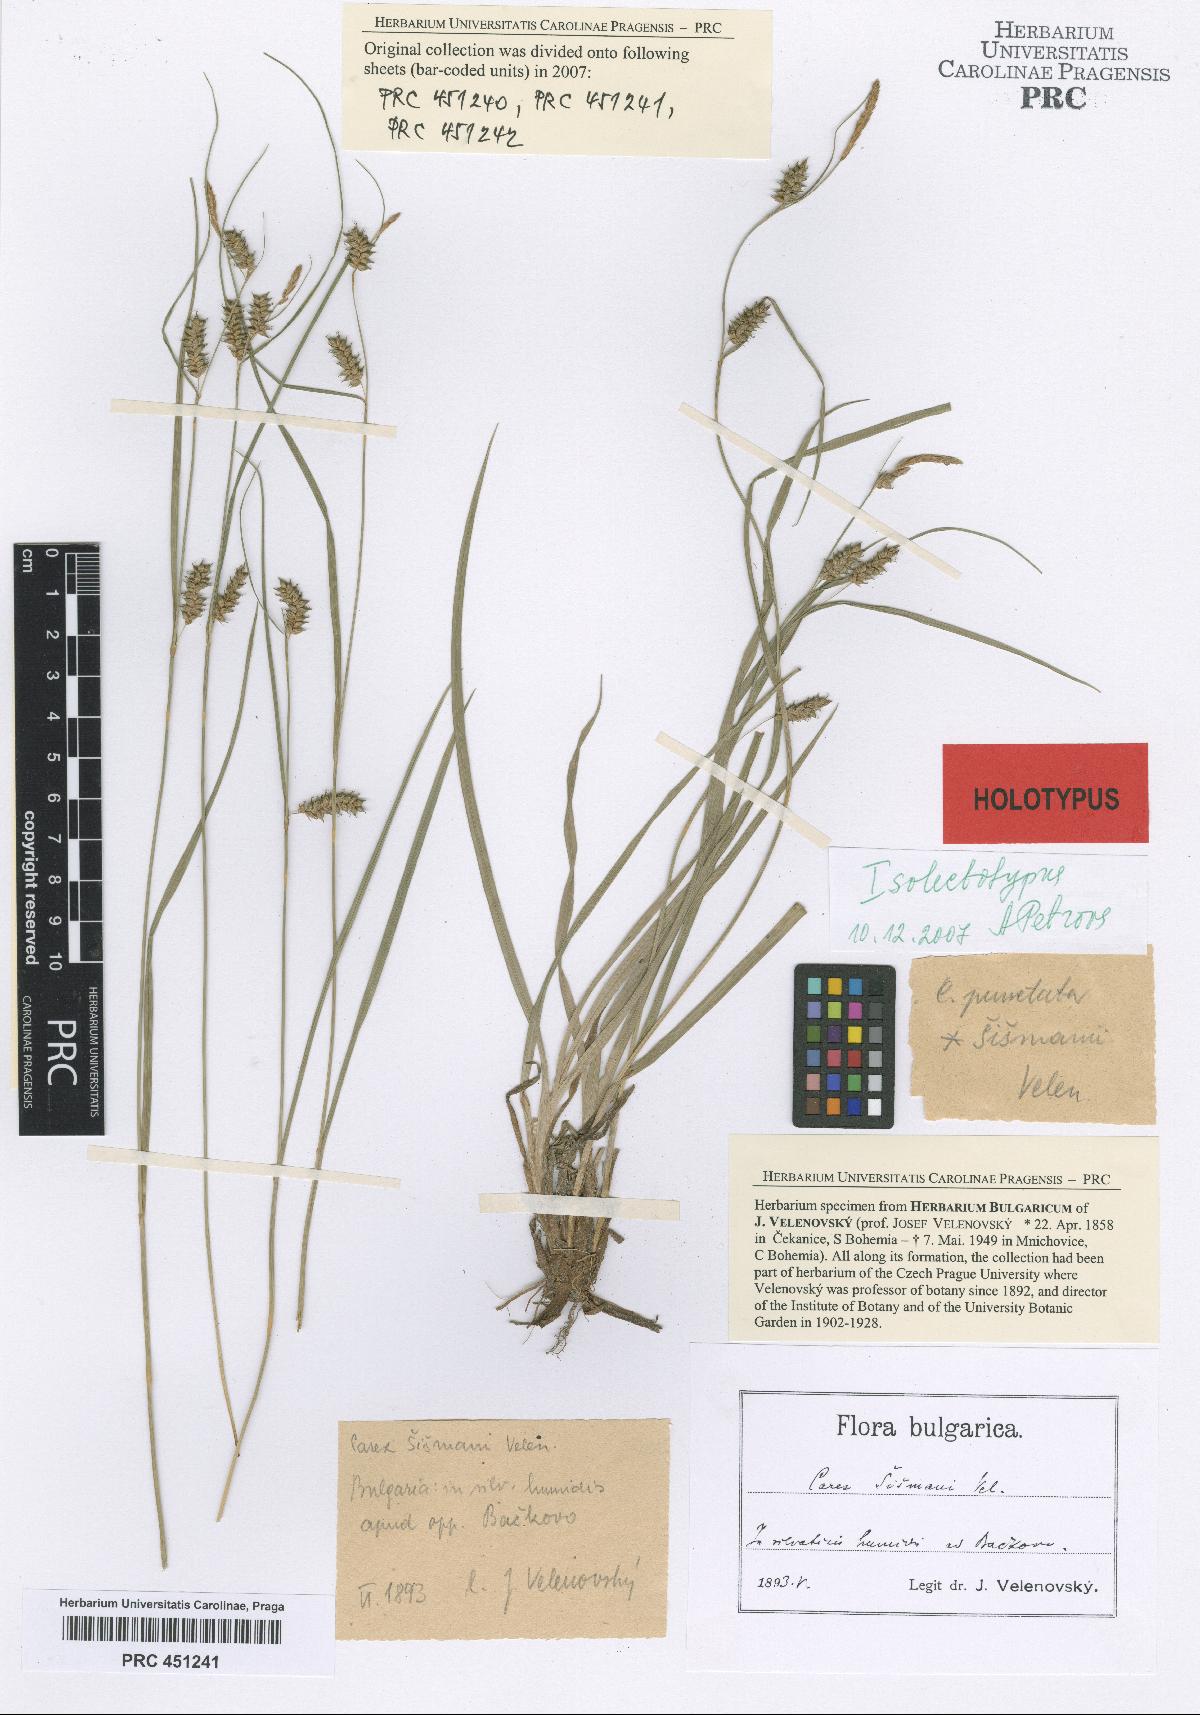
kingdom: Plantae
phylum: Tracheophyta
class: Liliopsida
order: Poales
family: Cyperaceae
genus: Carex
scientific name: Carex punctata
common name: Dotted sedge
